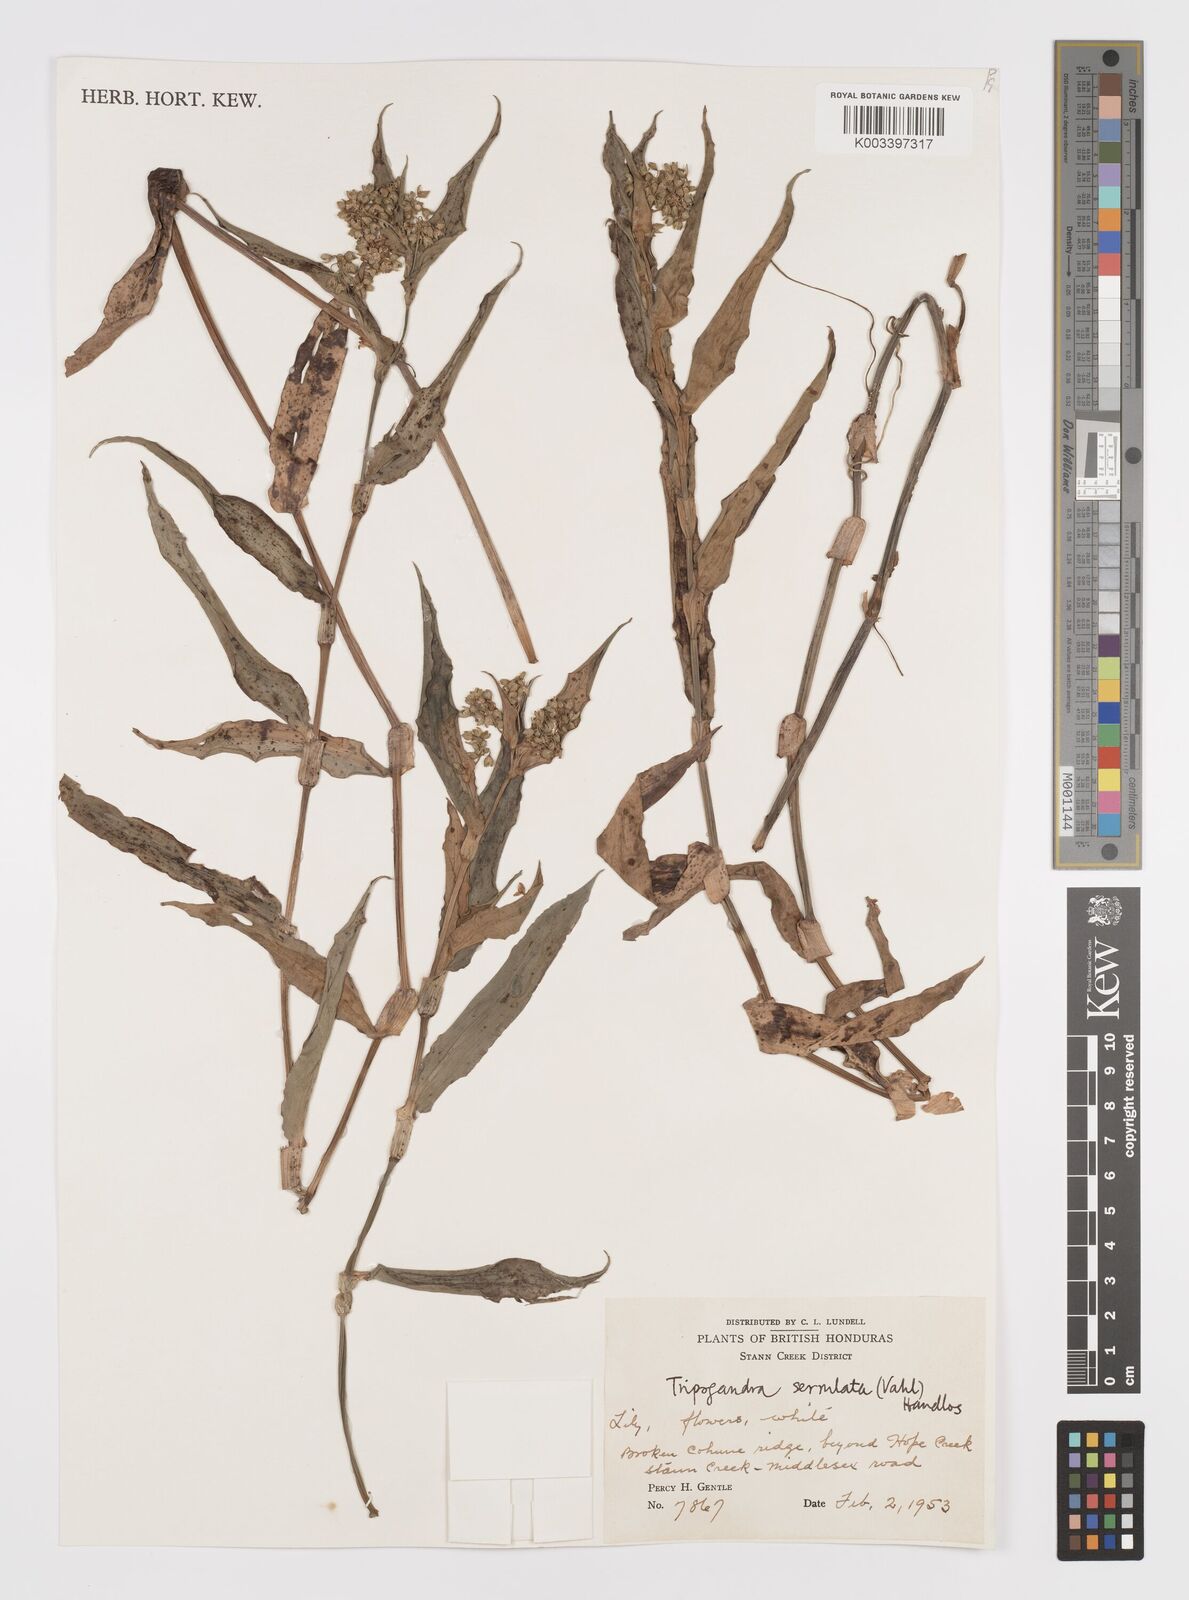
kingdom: Plantae
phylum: Tracheophyta
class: Liliopsida
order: Commelinales
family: Commelinaceae
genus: Callisia
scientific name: Callisia serrulata
